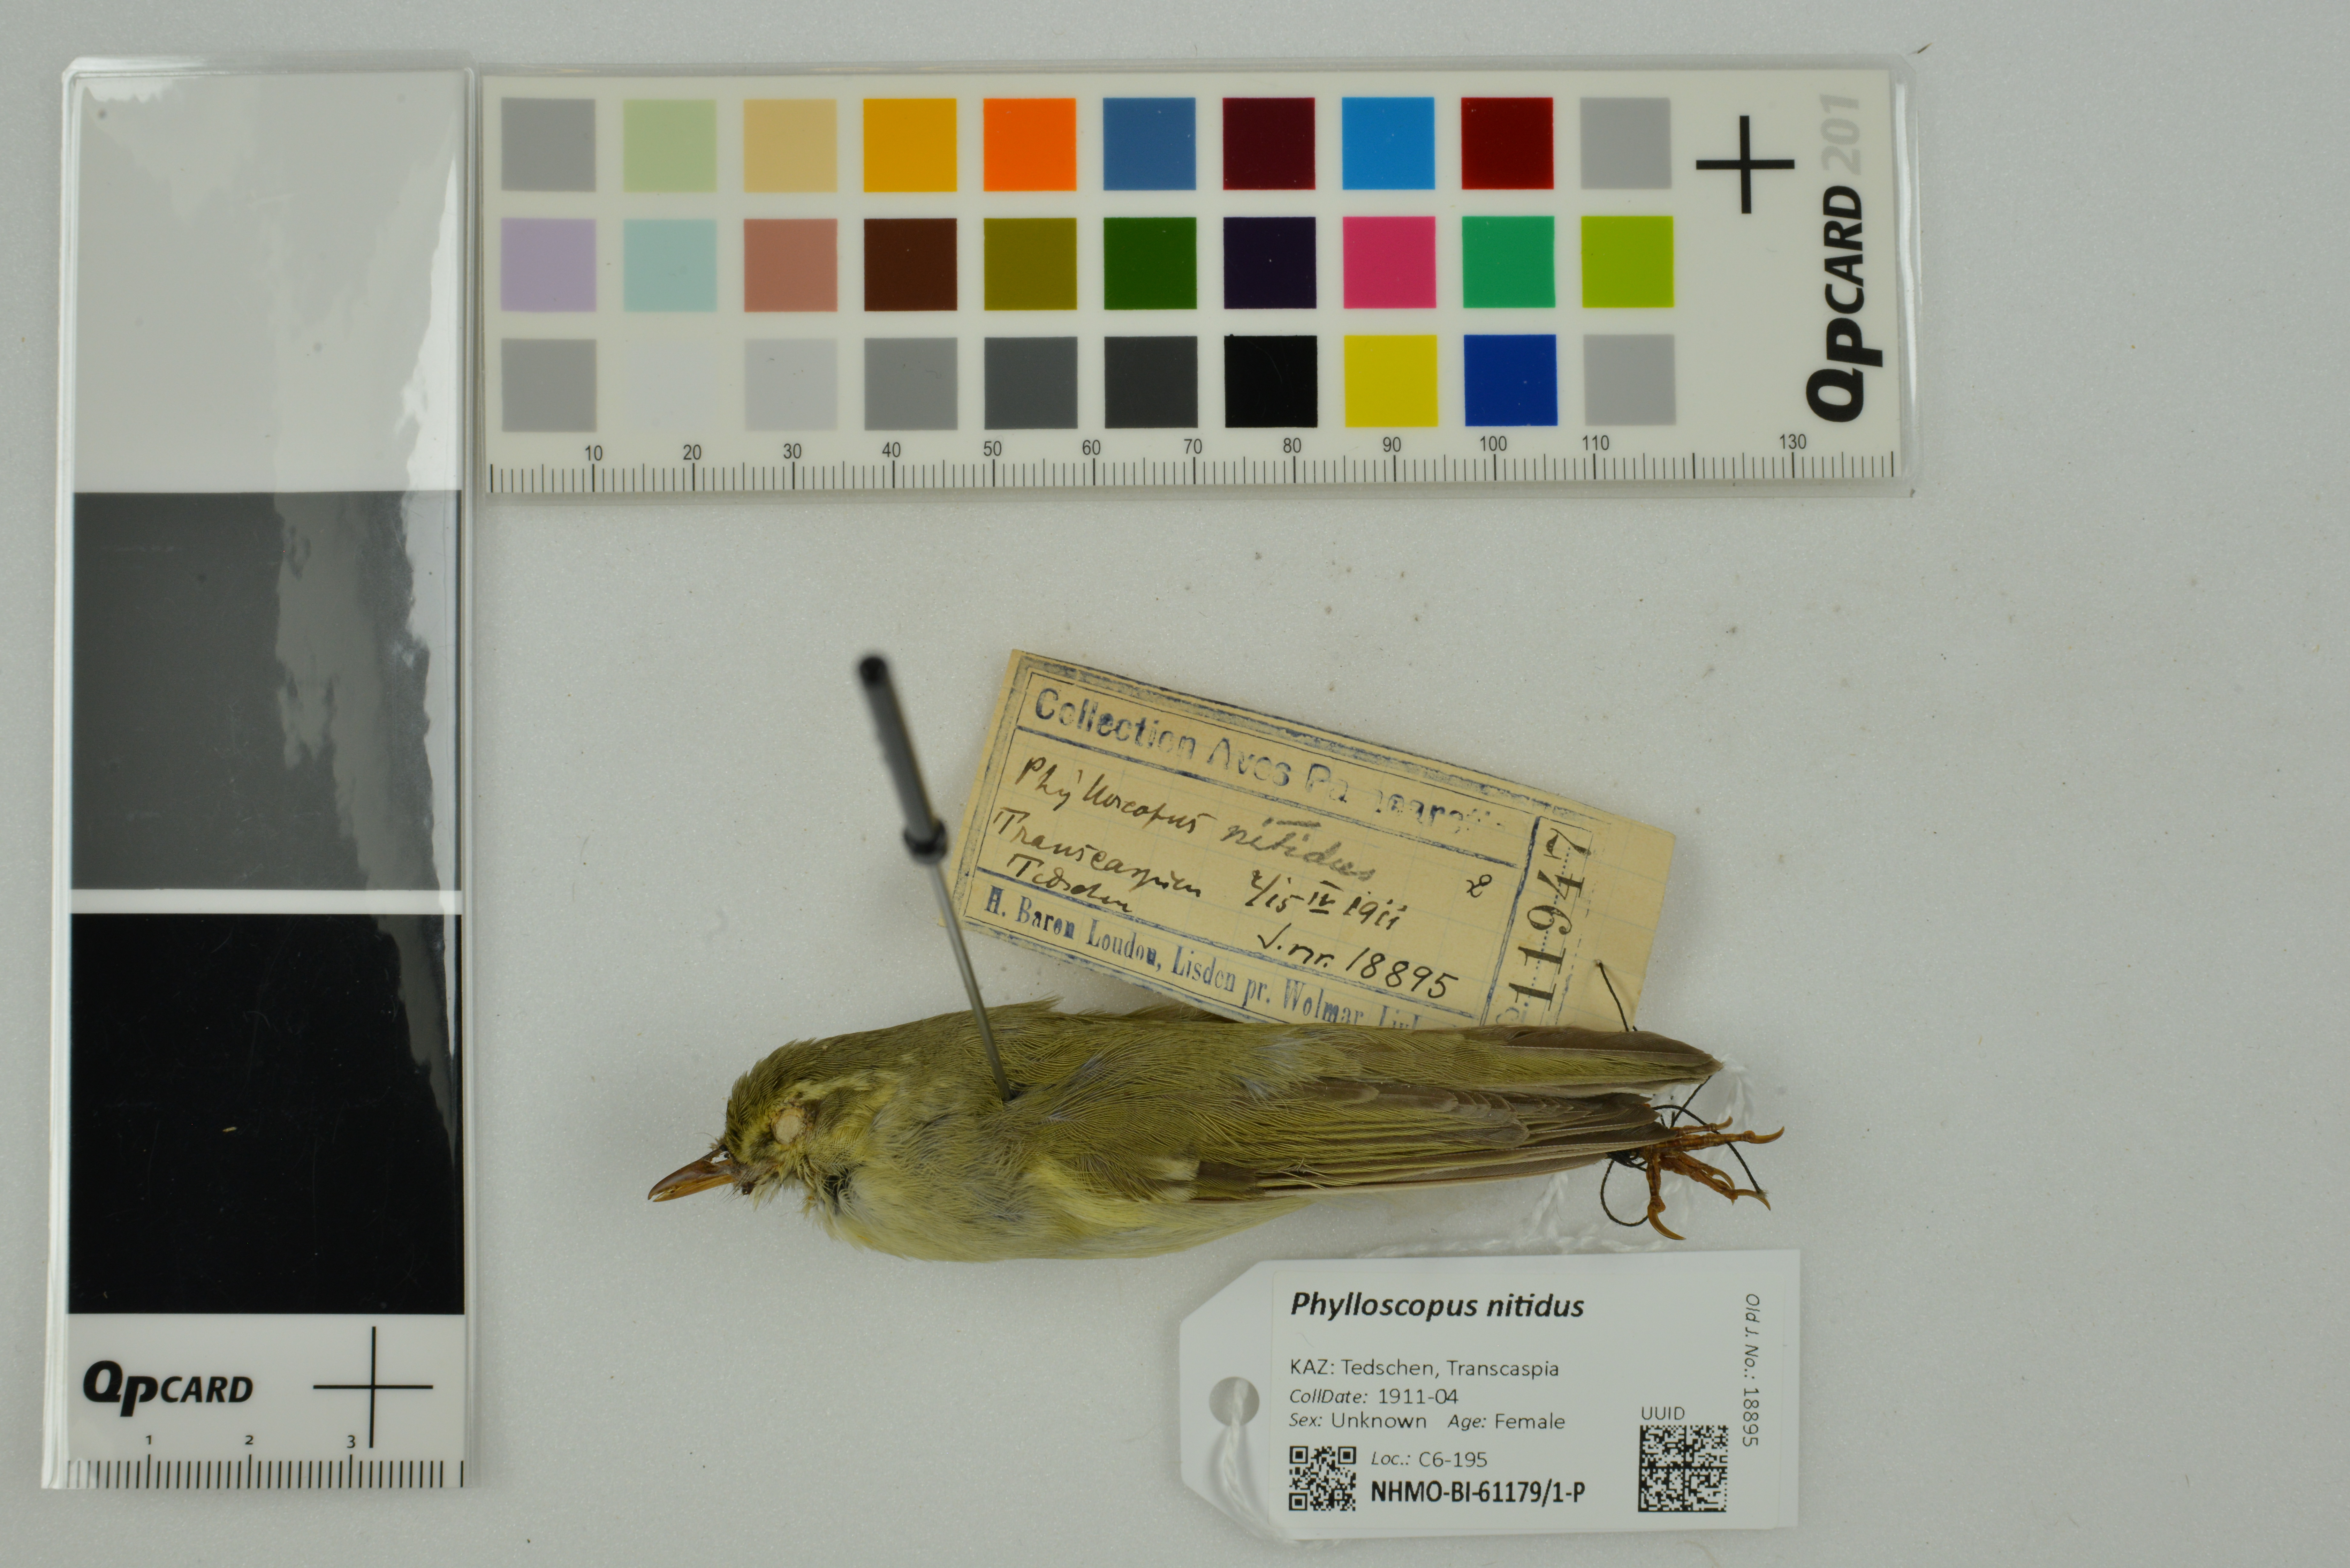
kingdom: Animalia
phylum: Chordata
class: Aves
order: Passeriformes
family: Phylloscopidae
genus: Phylloscopus
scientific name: Phylloscopus nitidus
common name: Green warbler
